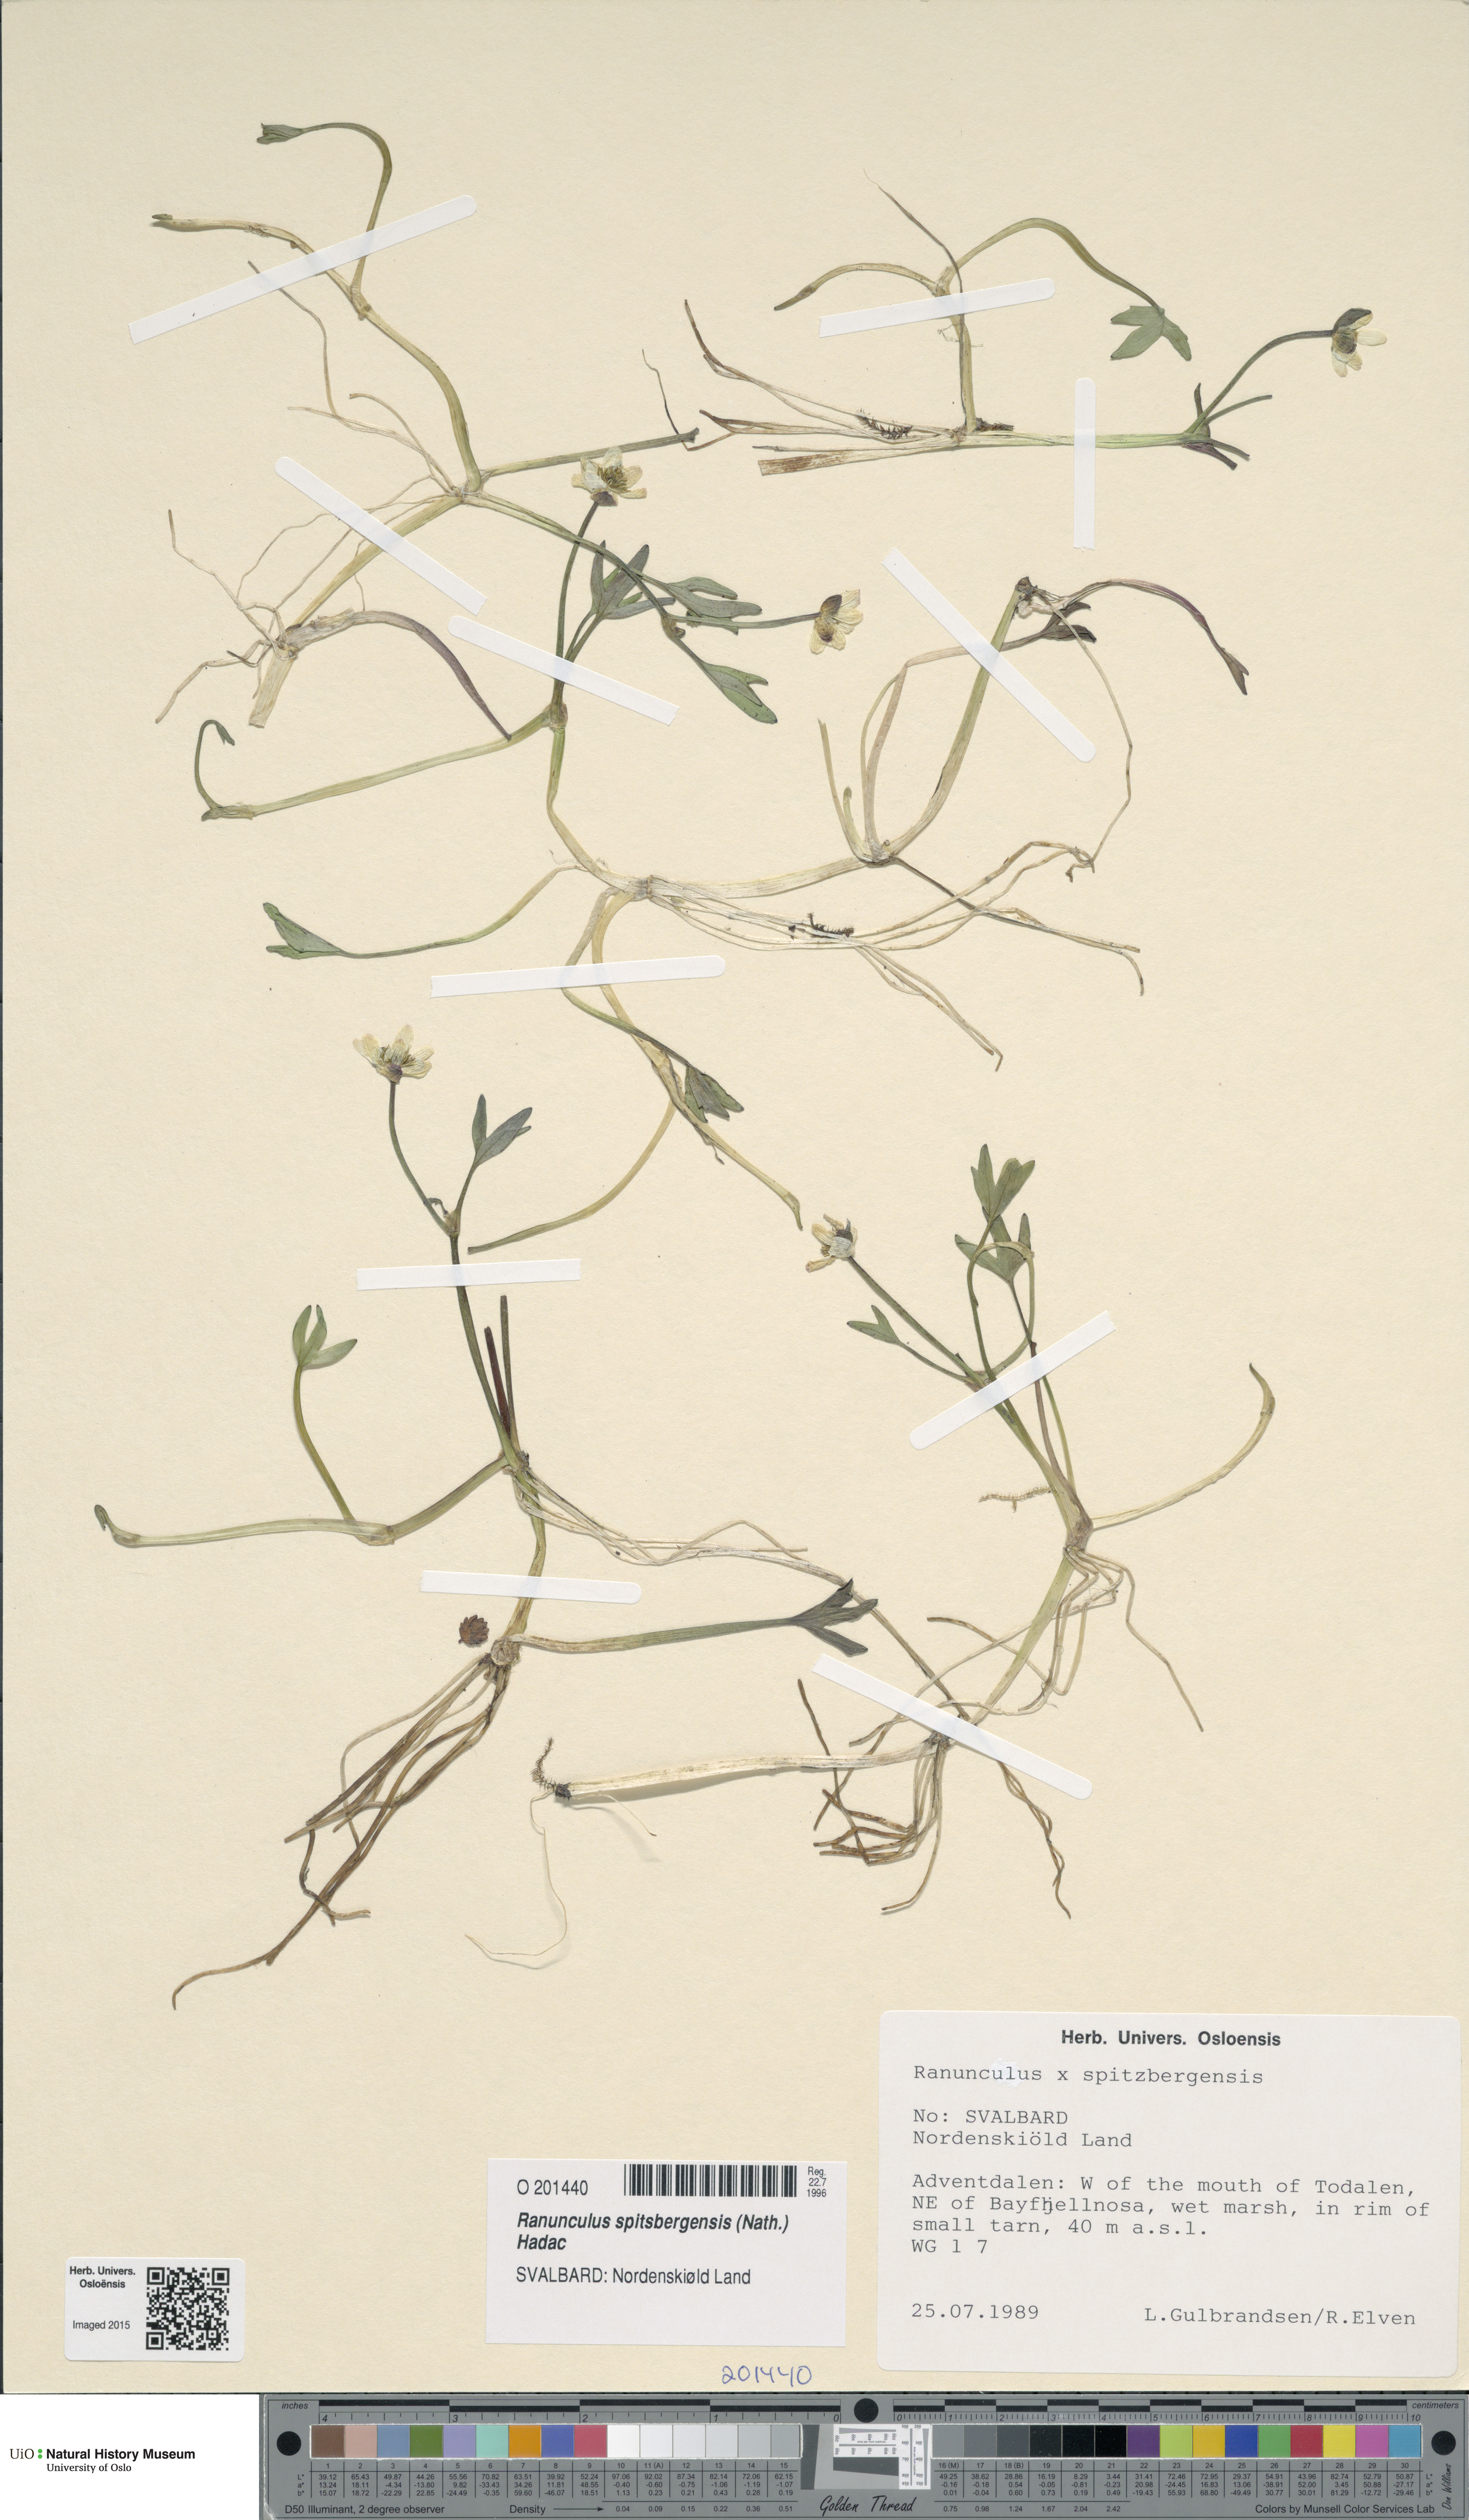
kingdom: Plantae
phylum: Tracheophyta
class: Magnoliopsida
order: Ranunculales
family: Ranunculaceae
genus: Coptidium
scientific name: Coptidium spitsbergense
